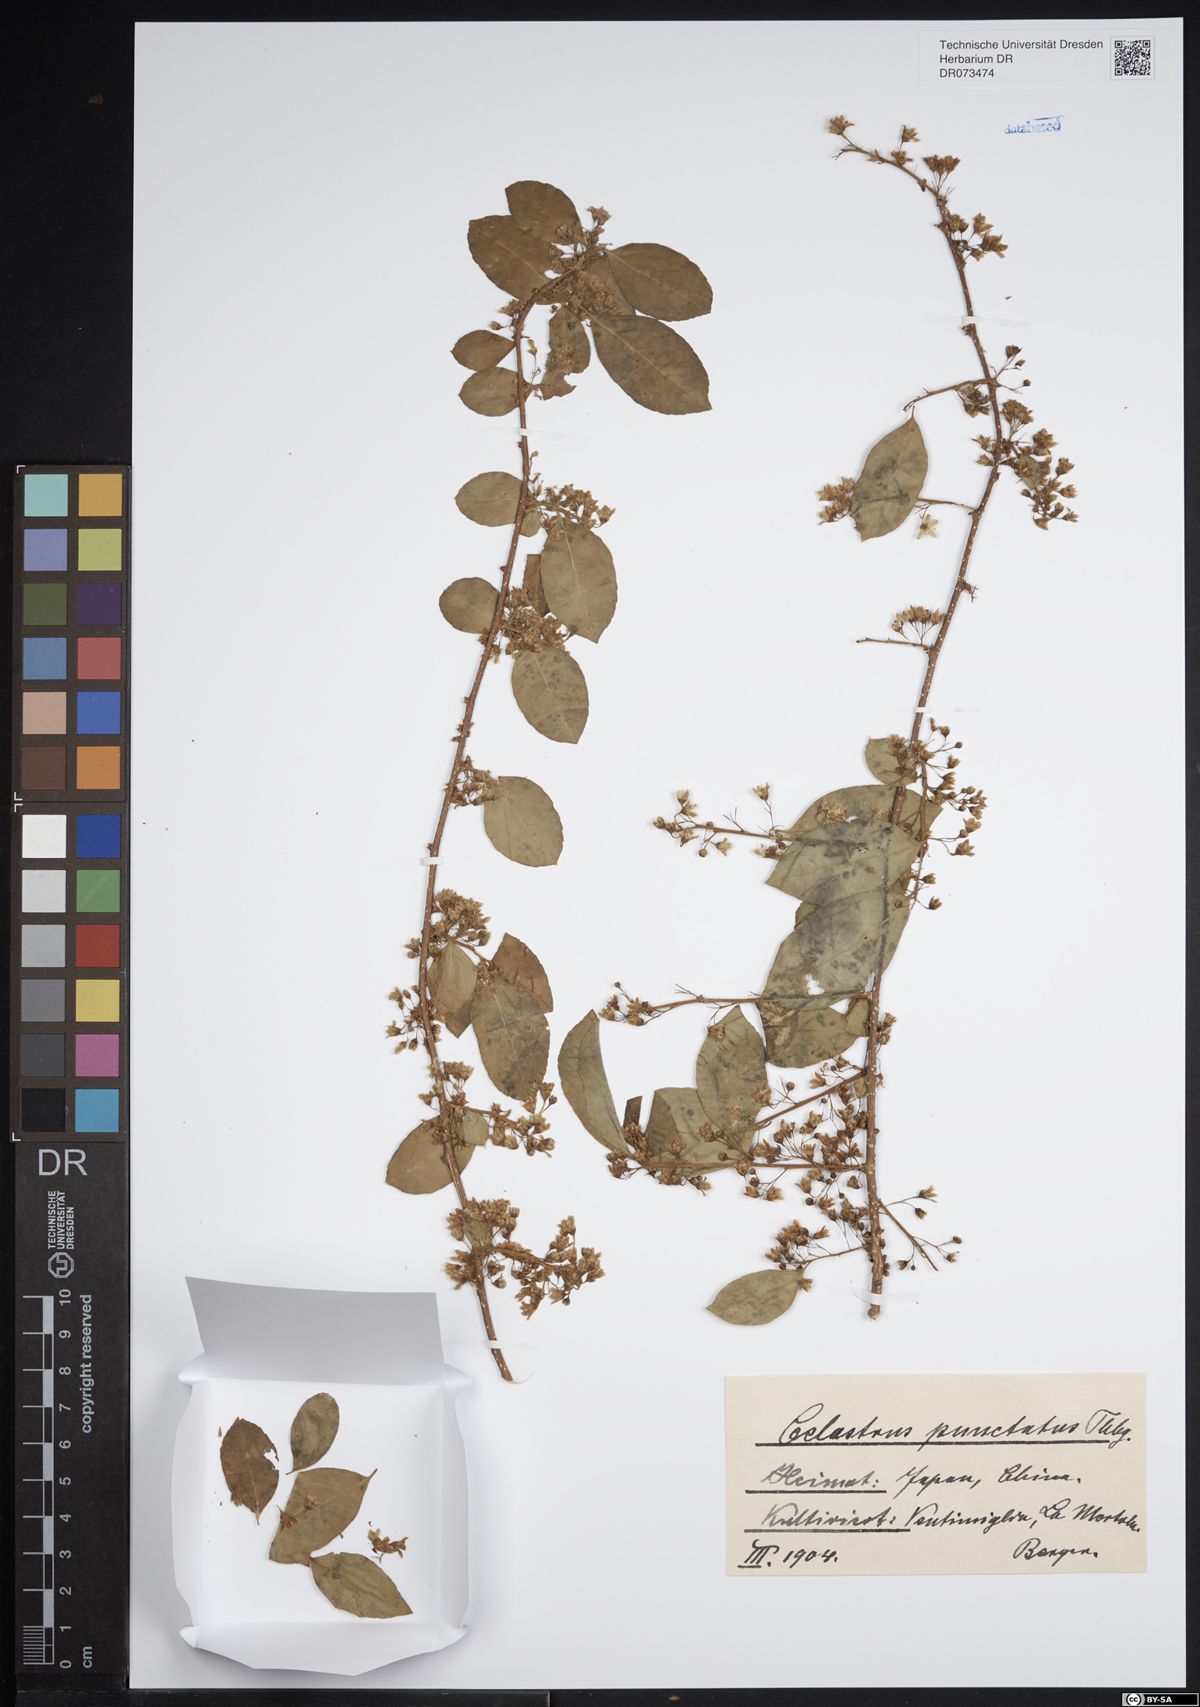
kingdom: Plantae
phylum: Tracheophyta
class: Magnoliopsida
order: Celastrales
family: Celastraceae
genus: Celastrus
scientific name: Celastrus punctatus
